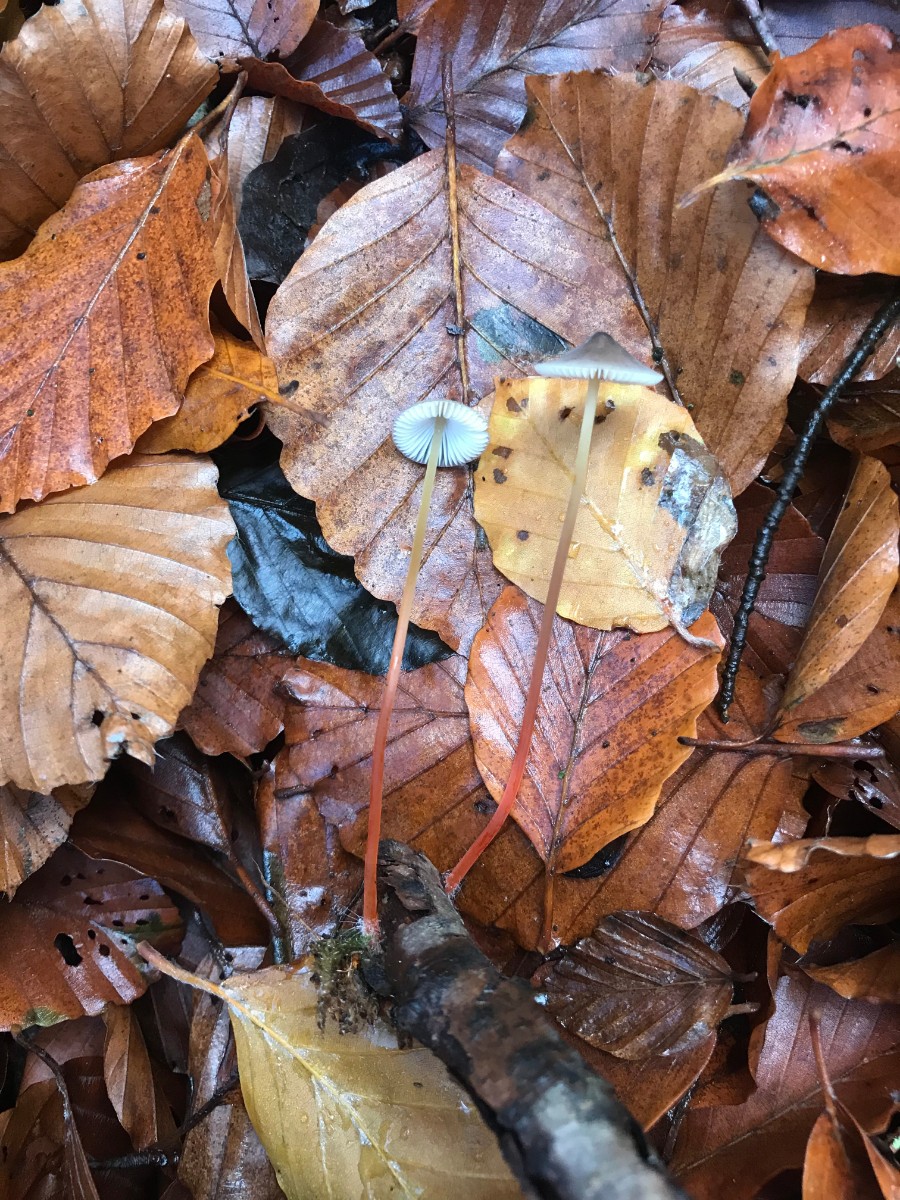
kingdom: Fungi
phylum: Basidiomycota
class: Agaricomycetes
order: Agaricales
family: Mycenaceae
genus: Mycena
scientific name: Mycena crocata
